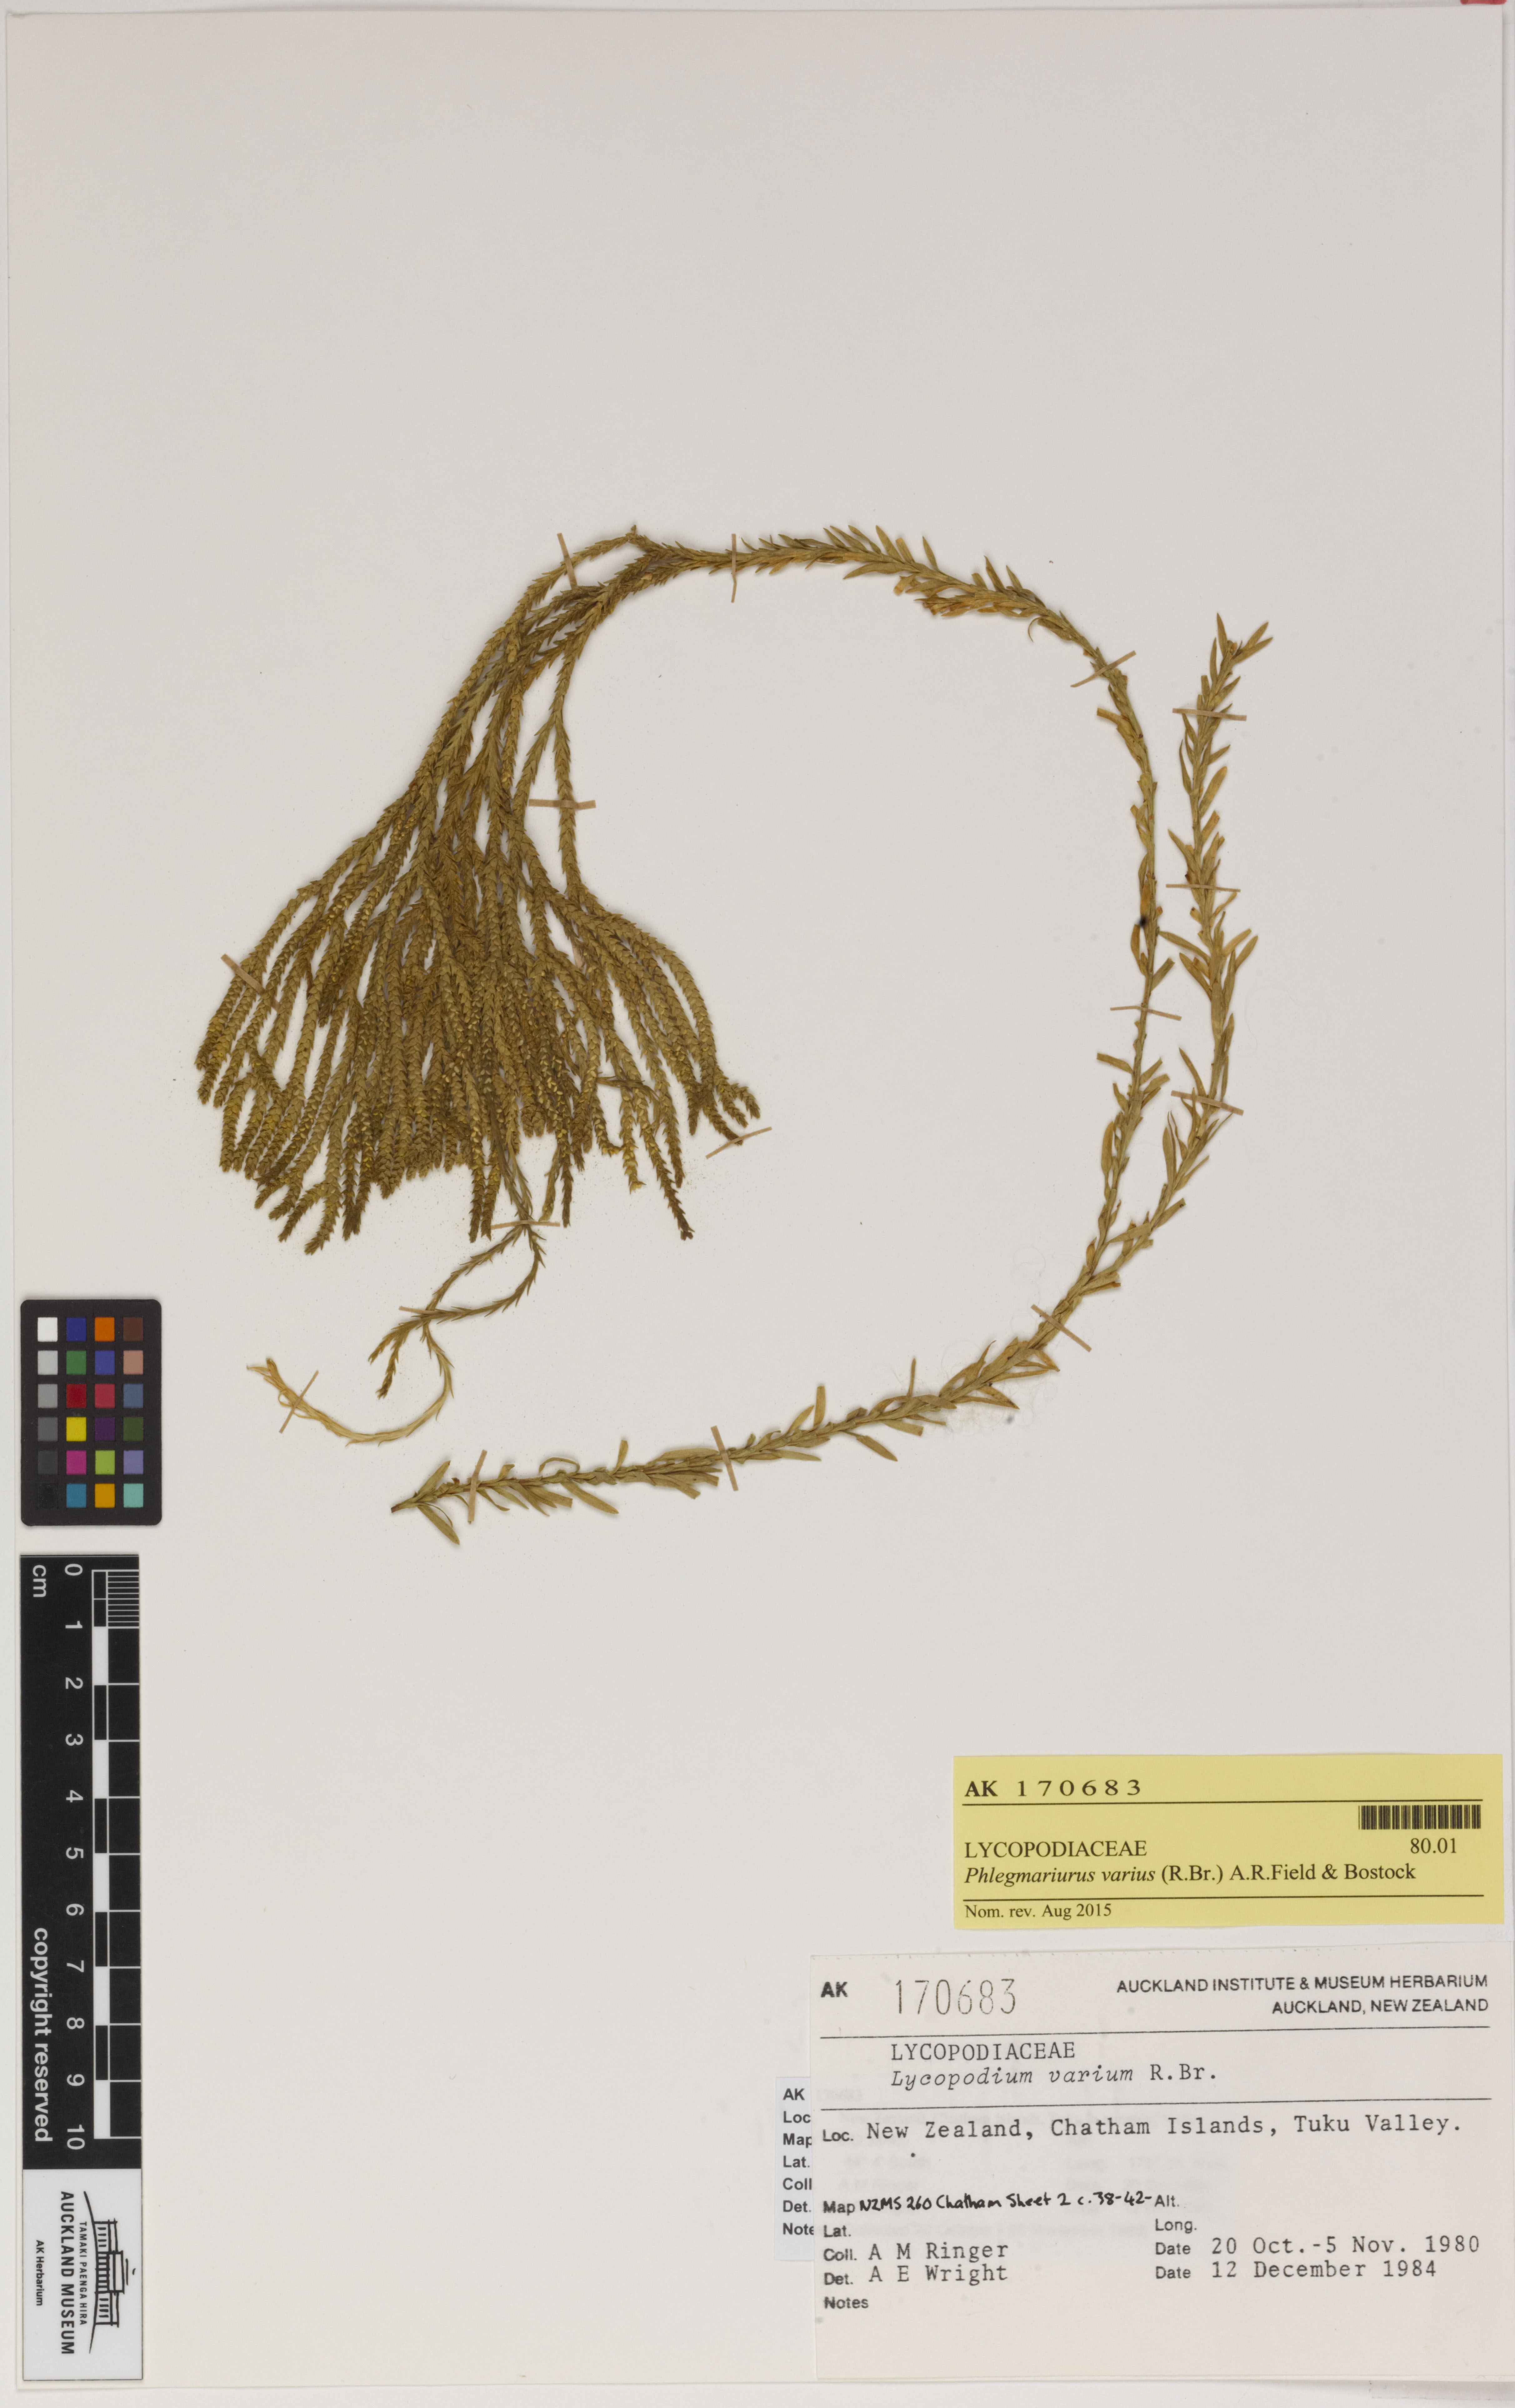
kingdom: Plantae
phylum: Tracheophyta
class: Lycopodiopsida
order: Lycopodiales
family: Lycopodiaceae
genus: Phlegmariurus
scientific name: Phlegmariurus billardierei
